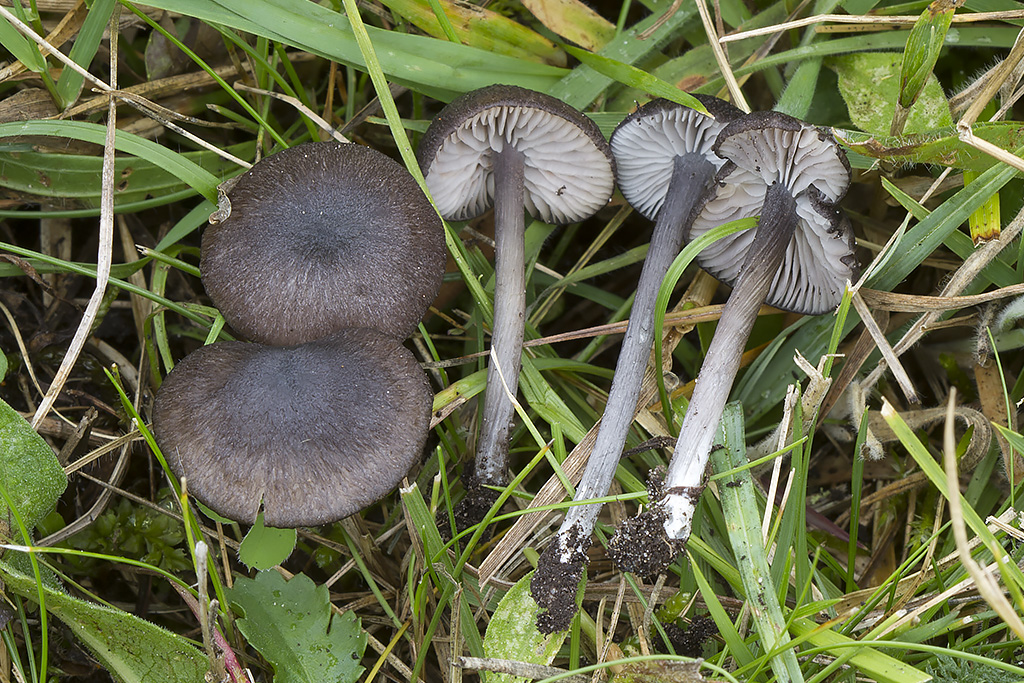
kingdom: Fungi
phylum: Basidiomycota
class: Agaricomycetes
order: Agaricales
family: Entolomataceae
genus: Entoloma
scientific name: Entoloma porphyrogriseum
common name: porfyrgrå rødblad
